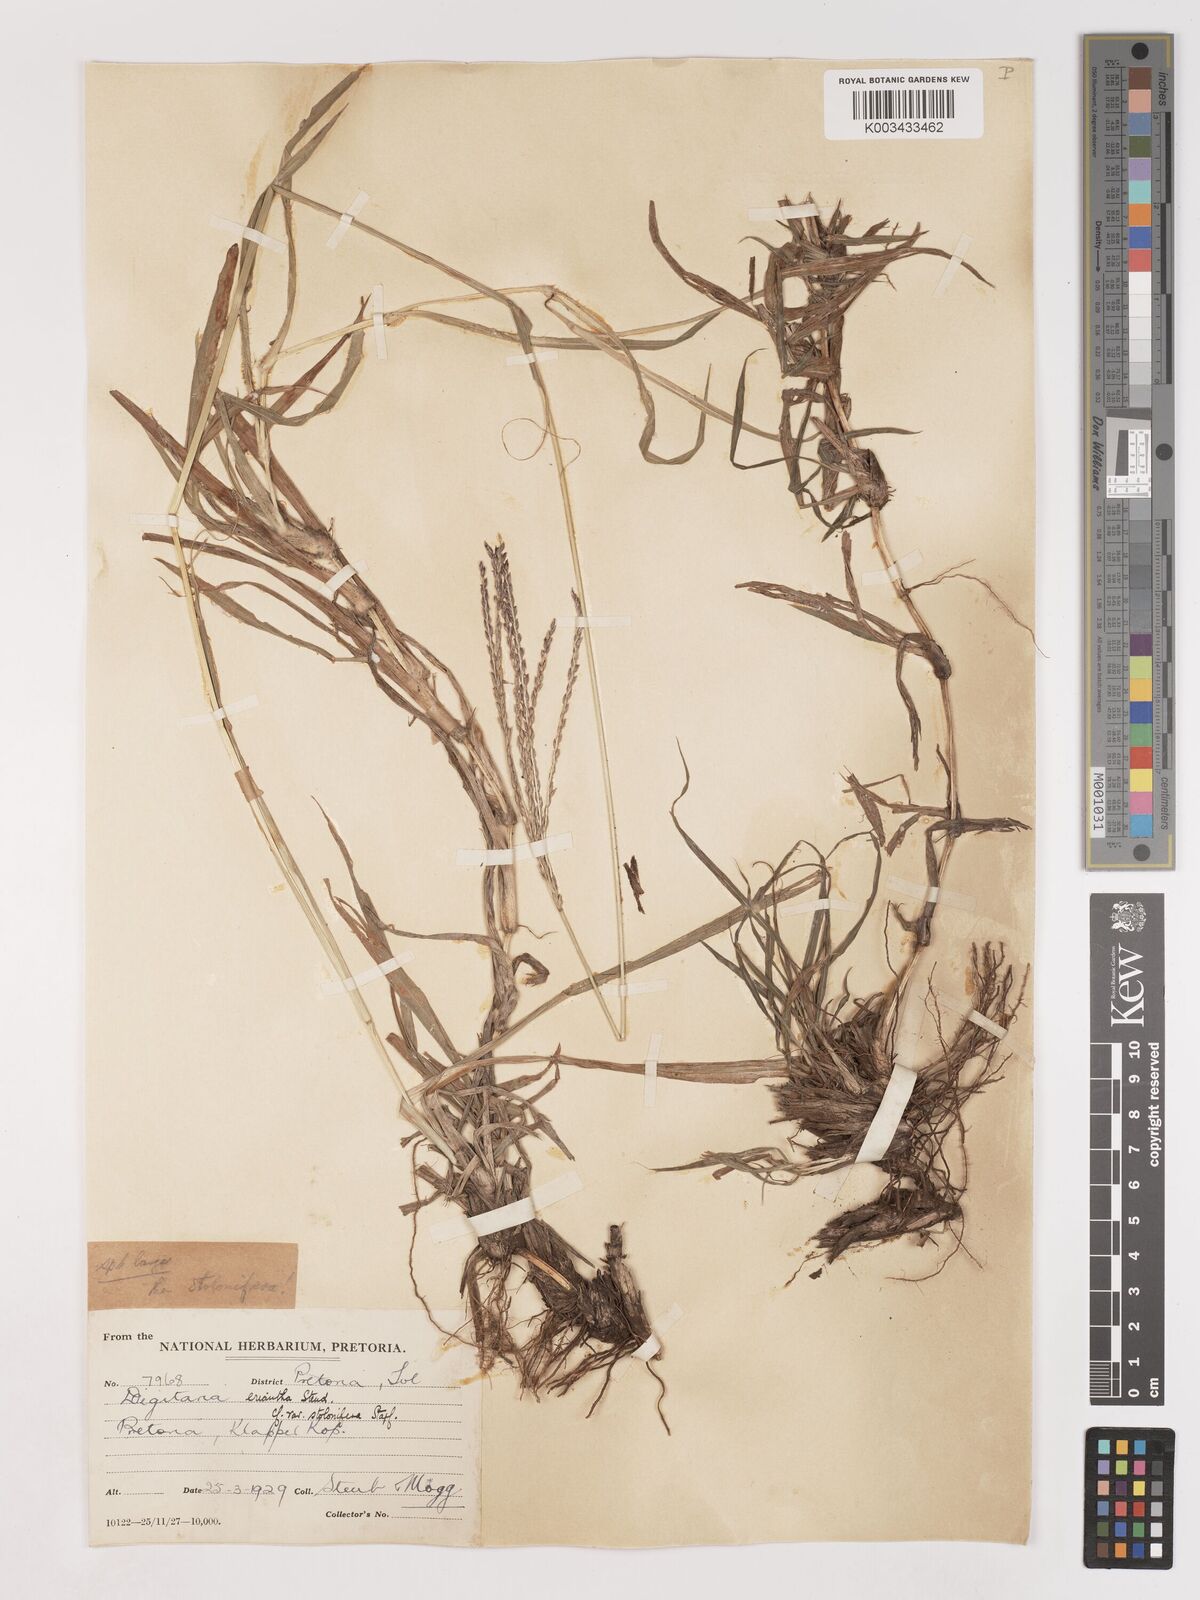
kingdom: Plantae
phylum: Tracheophyta
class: Liliopsida
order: Poales
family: Poaceae
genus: Digitaria
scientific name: Digitaria eriantha
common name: Digitgrass
